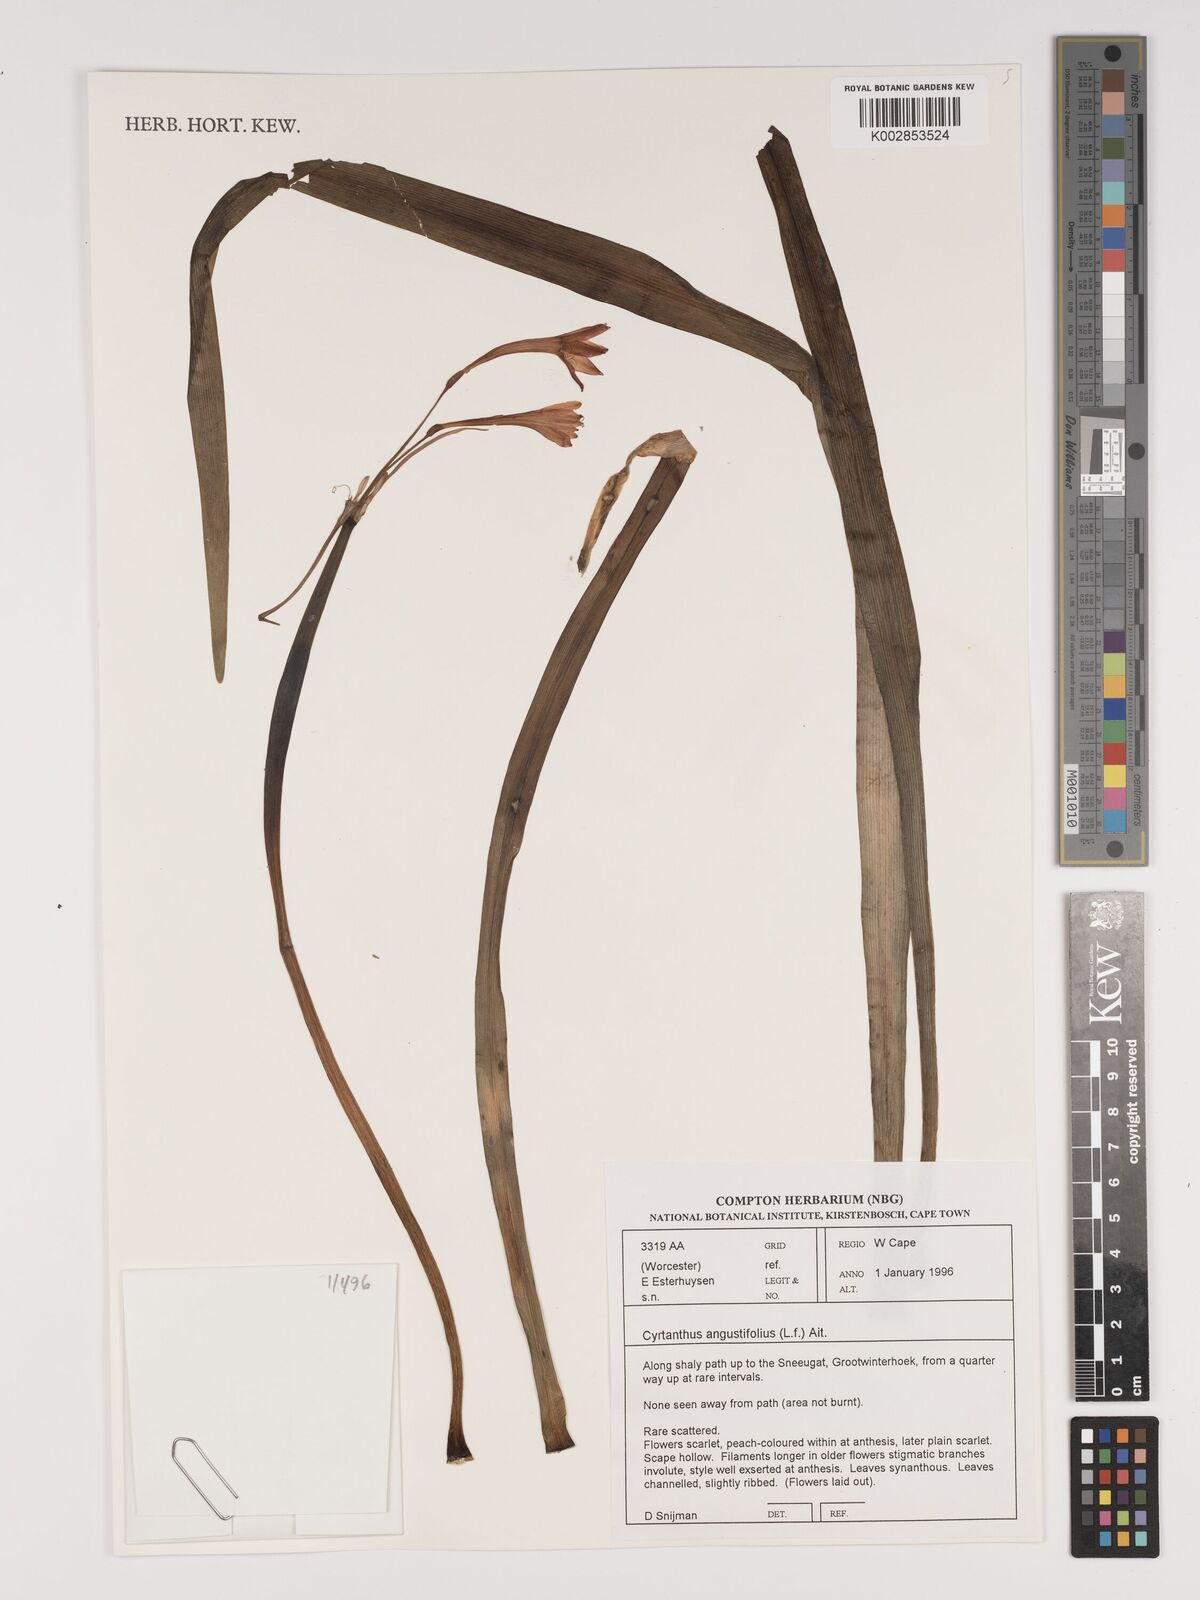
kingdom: Plantae
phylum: Tracheophyta
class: Liliopsida
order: Asparagales
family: Amaryllidaceae
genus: Cyrtanthus
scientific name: Cyrtanthus angustifolius
